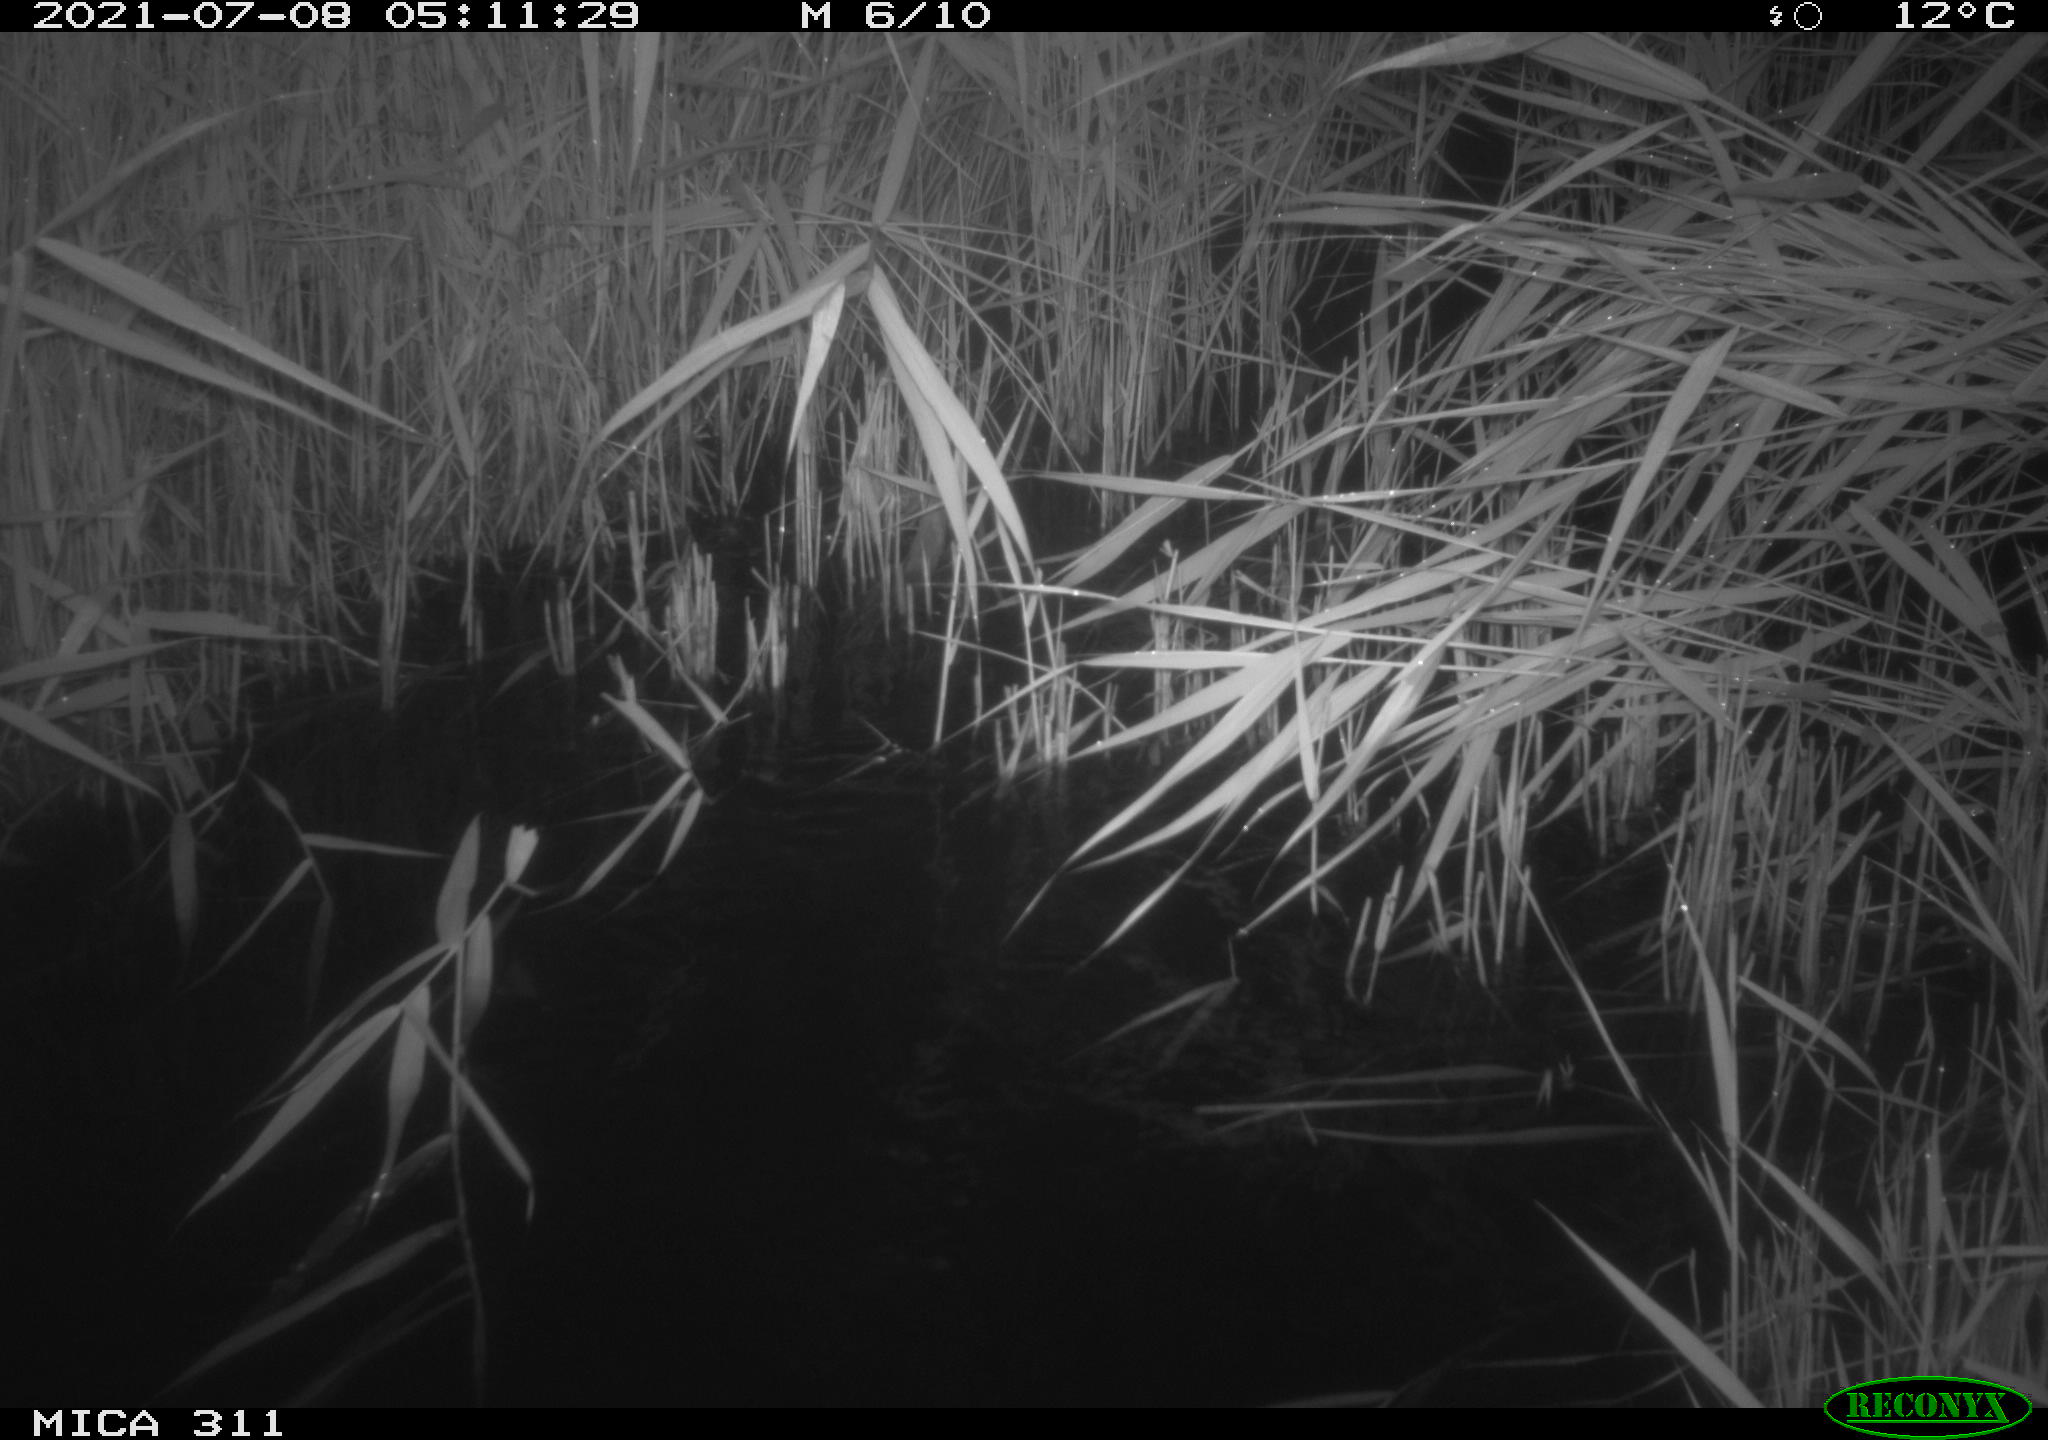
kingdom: Animalia
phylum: Chordata
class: Mammalia
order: Rodentia
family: Muridae
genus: Rattus
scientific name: Rattus norvegicus
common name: Brown rat
